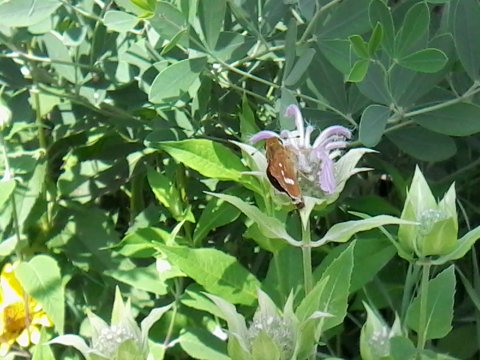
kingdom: Animalia
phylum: Arthropoda
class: Insecta
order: Lepidoptera
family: Hesperiidae
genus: Hesperia
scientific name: Hesperia leonardus
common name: Leonard's Skipper
